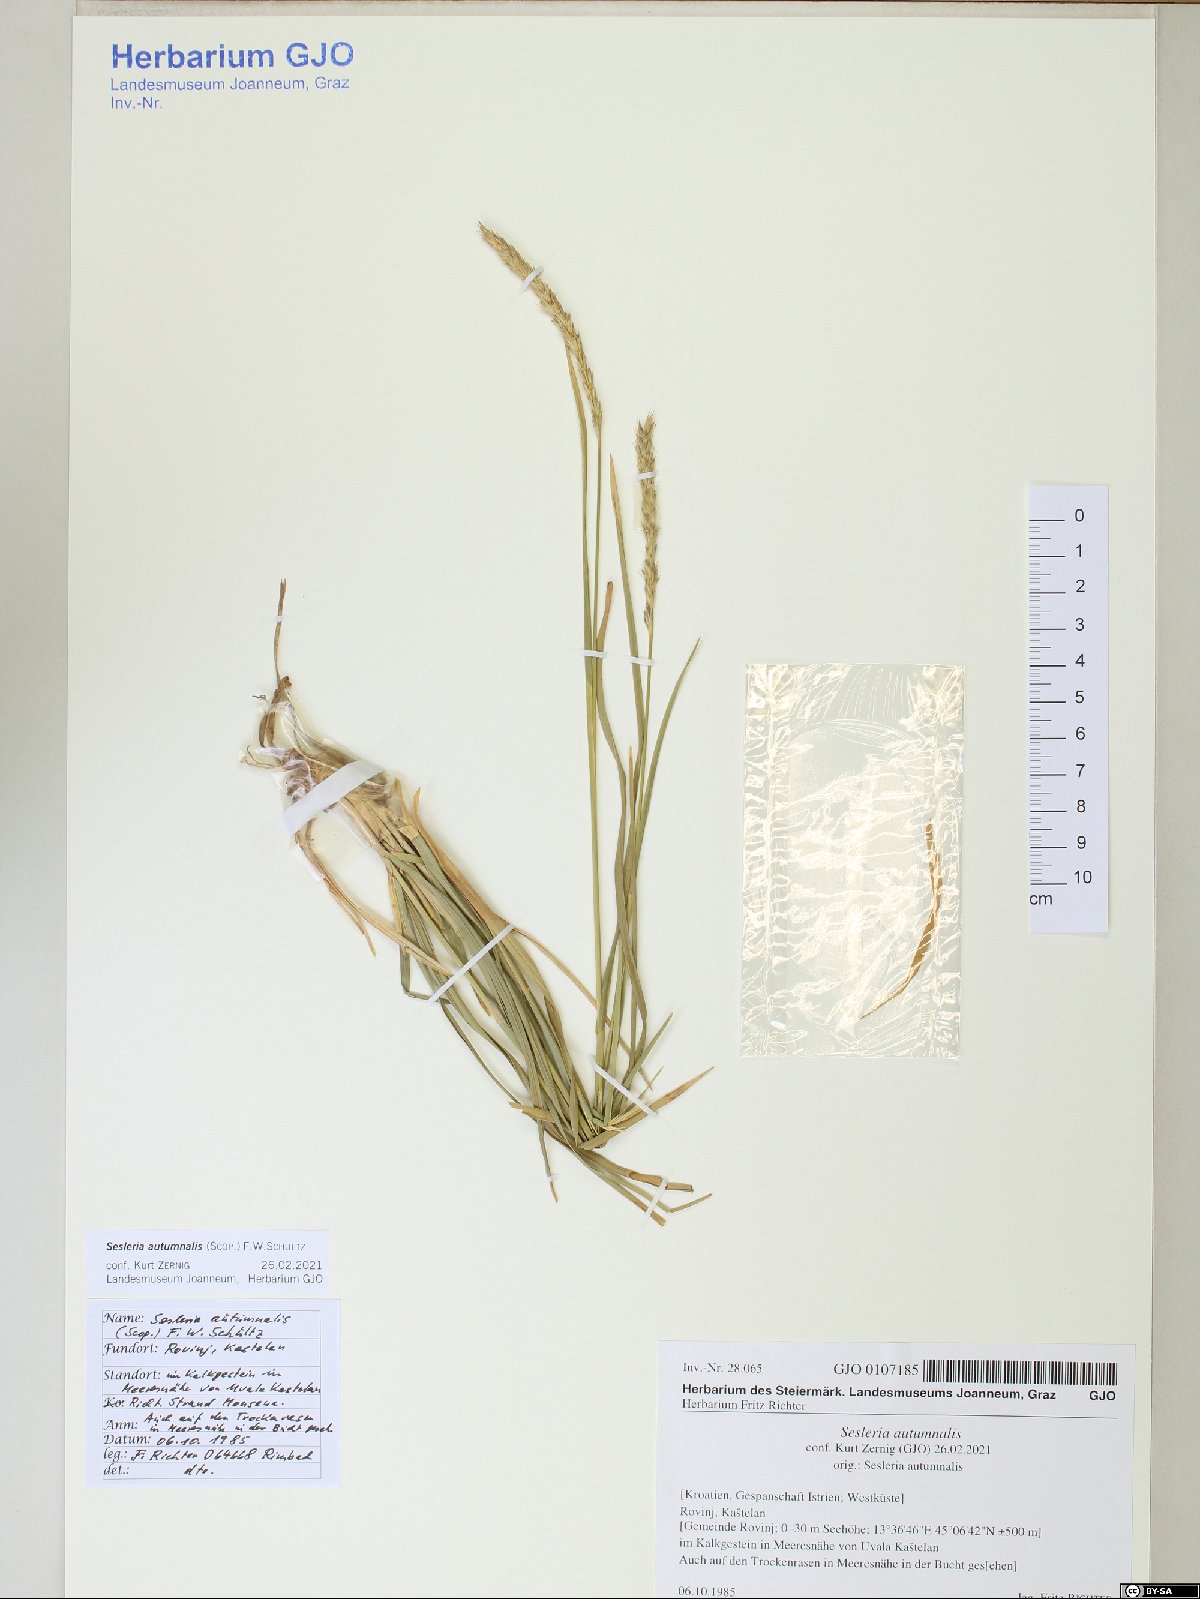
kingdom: Plantae
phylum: Tracheophyta
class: Liliopsida
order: Poales
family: Poaceae
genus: Sesleria
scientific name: Sesleria autumnalis
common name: Autumn moor grass
